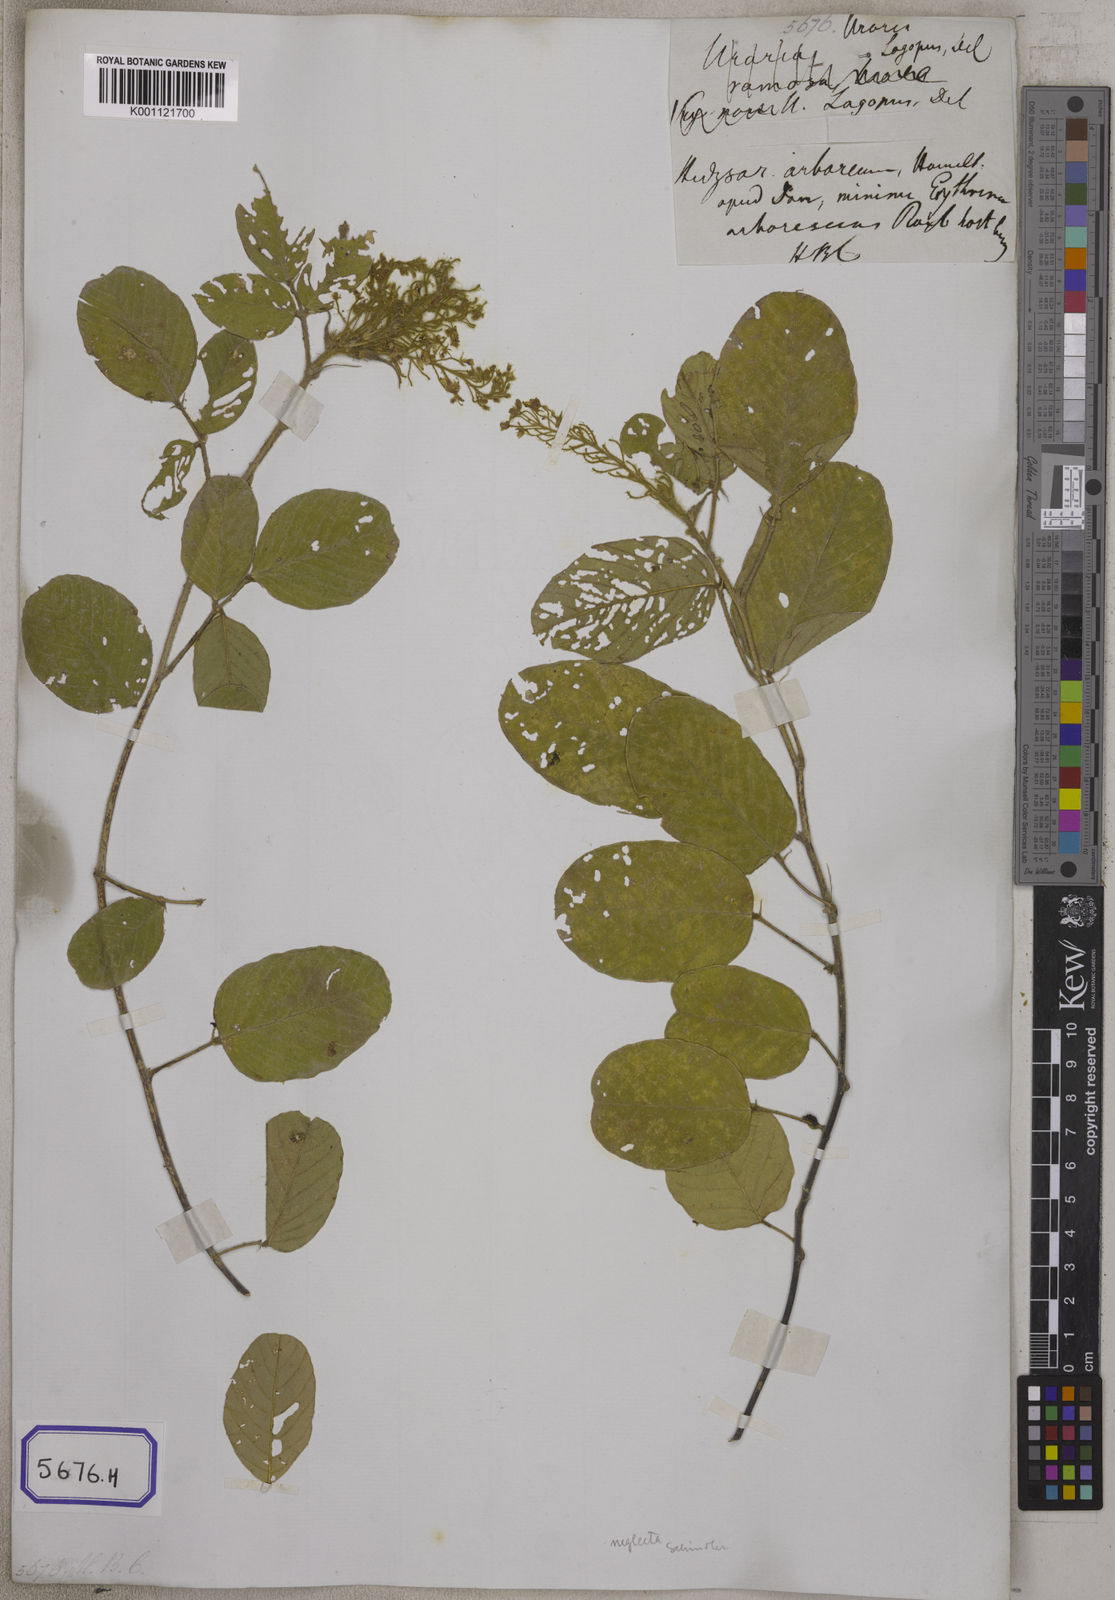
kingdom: Plantae
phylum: Tracheophyta
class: Magnoliopsida
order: Fabales
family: Fabaceae
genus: Uraria
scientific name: Uraria lagopodioides
